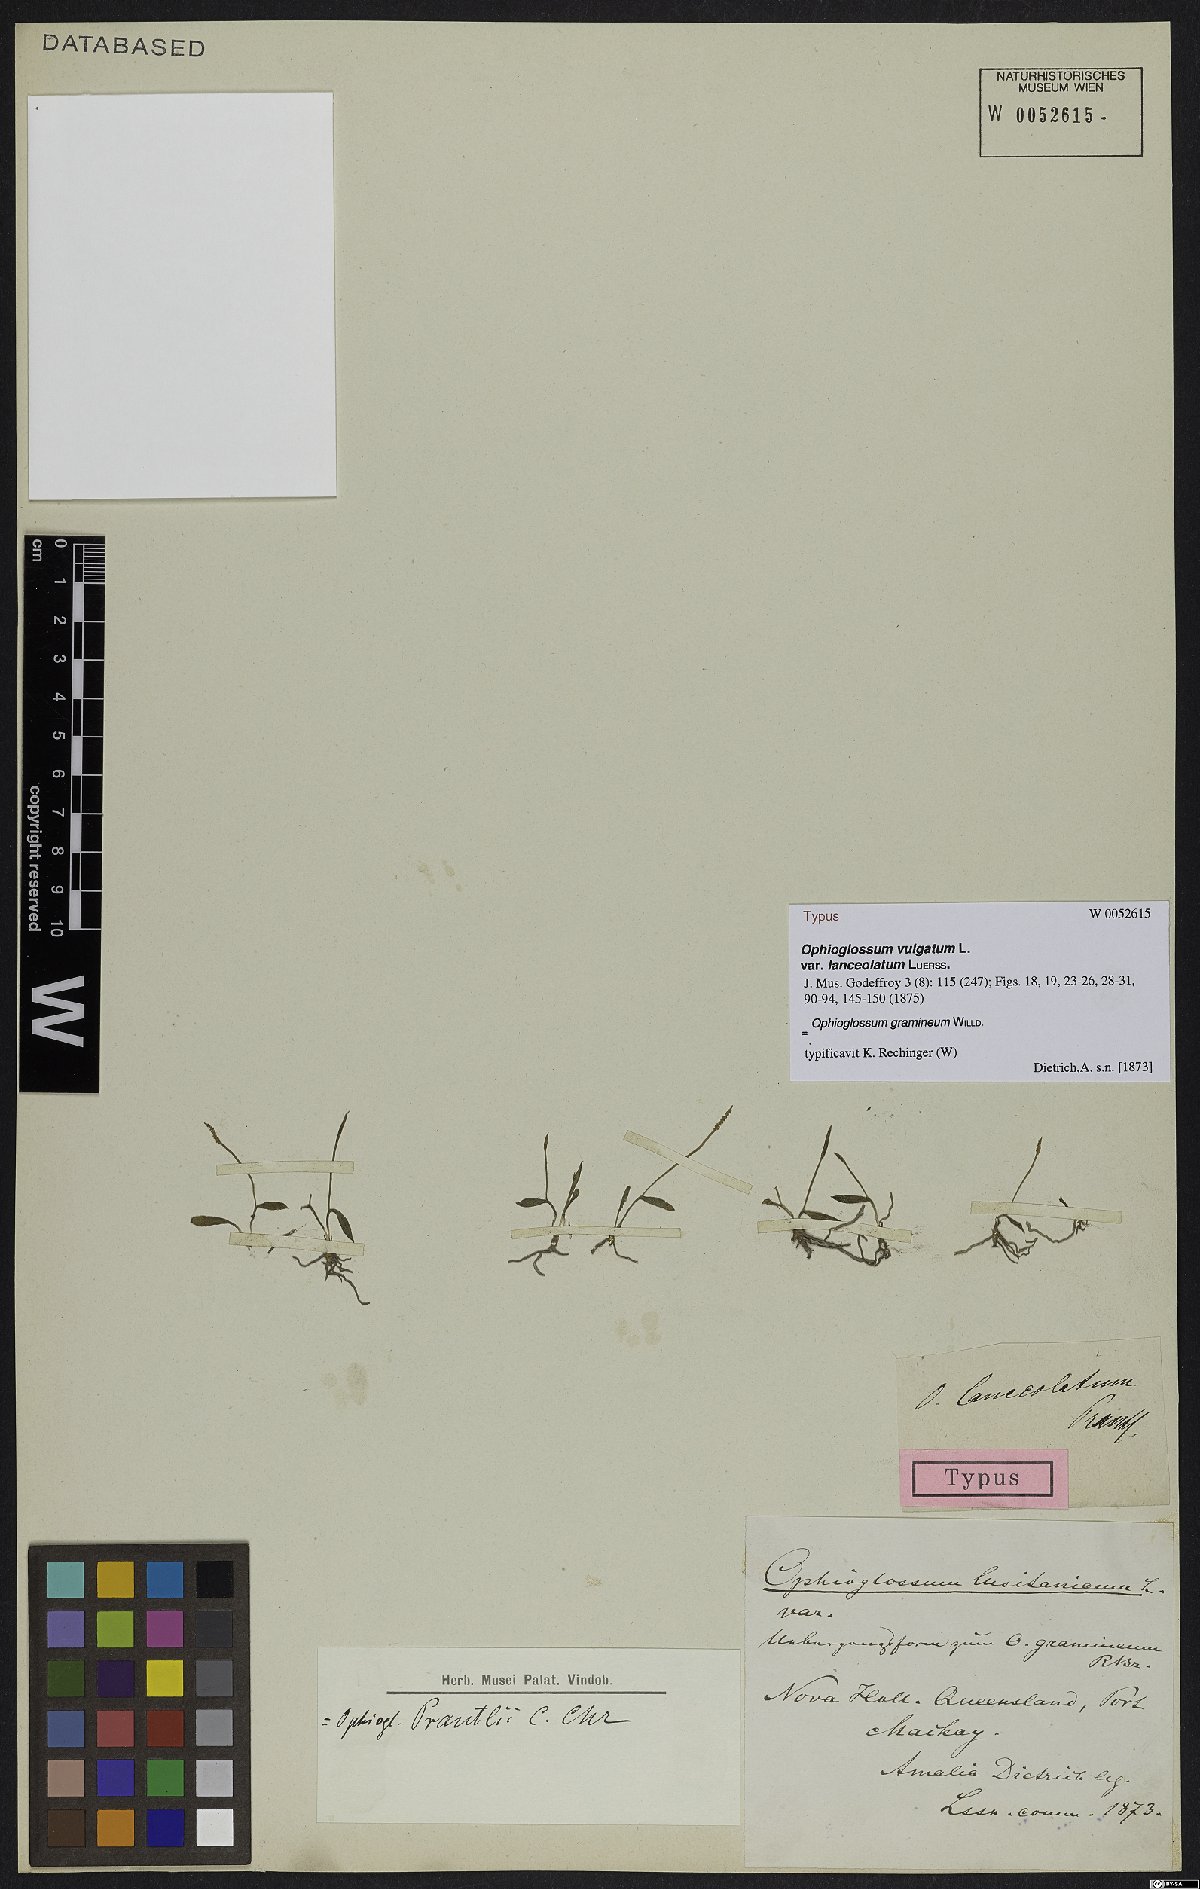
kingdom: Plantae
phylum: Tracheophyta
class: Polypodiopsida
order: Ophioglossales
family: Ophioglossaceae
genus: Ophioglossum
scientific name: Ophioglossum gramineum
